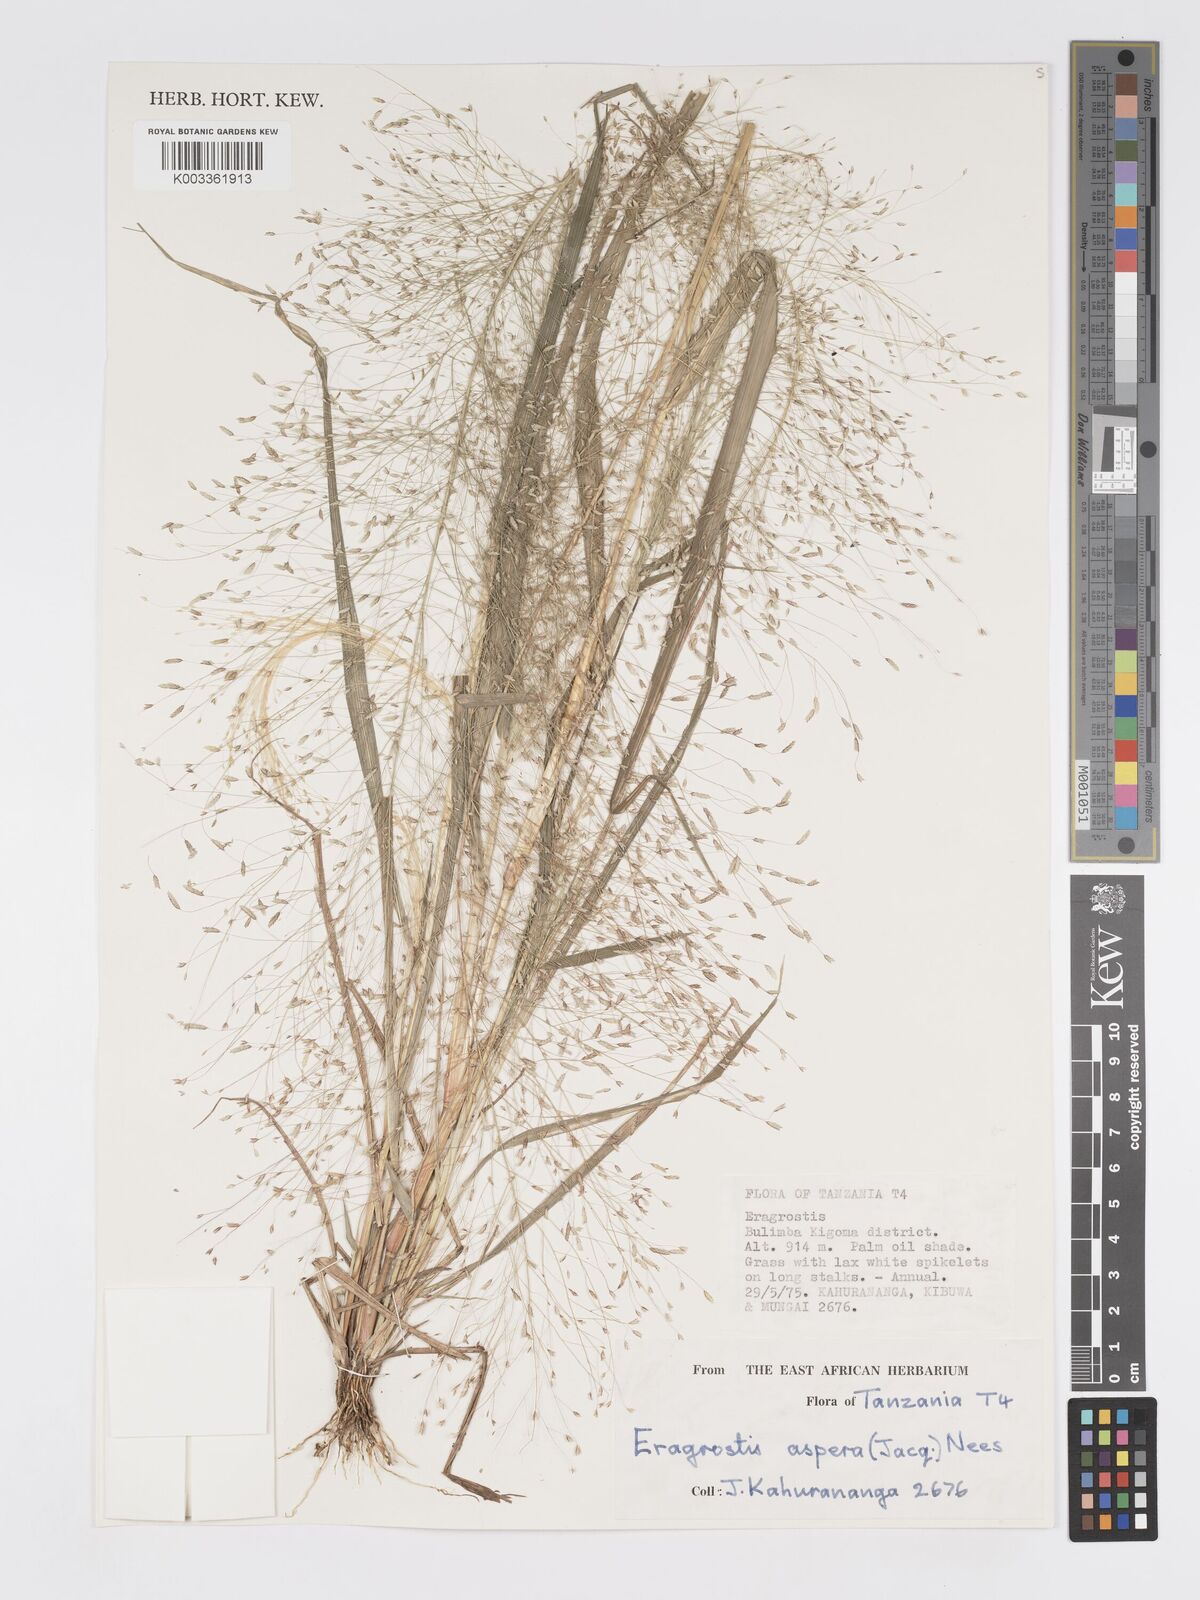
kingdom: Plantae
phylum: Tracheophyta
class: Liliopsida
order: Poales
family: Poaceae
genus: Eragrostis
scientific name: Eragrostis aspera
